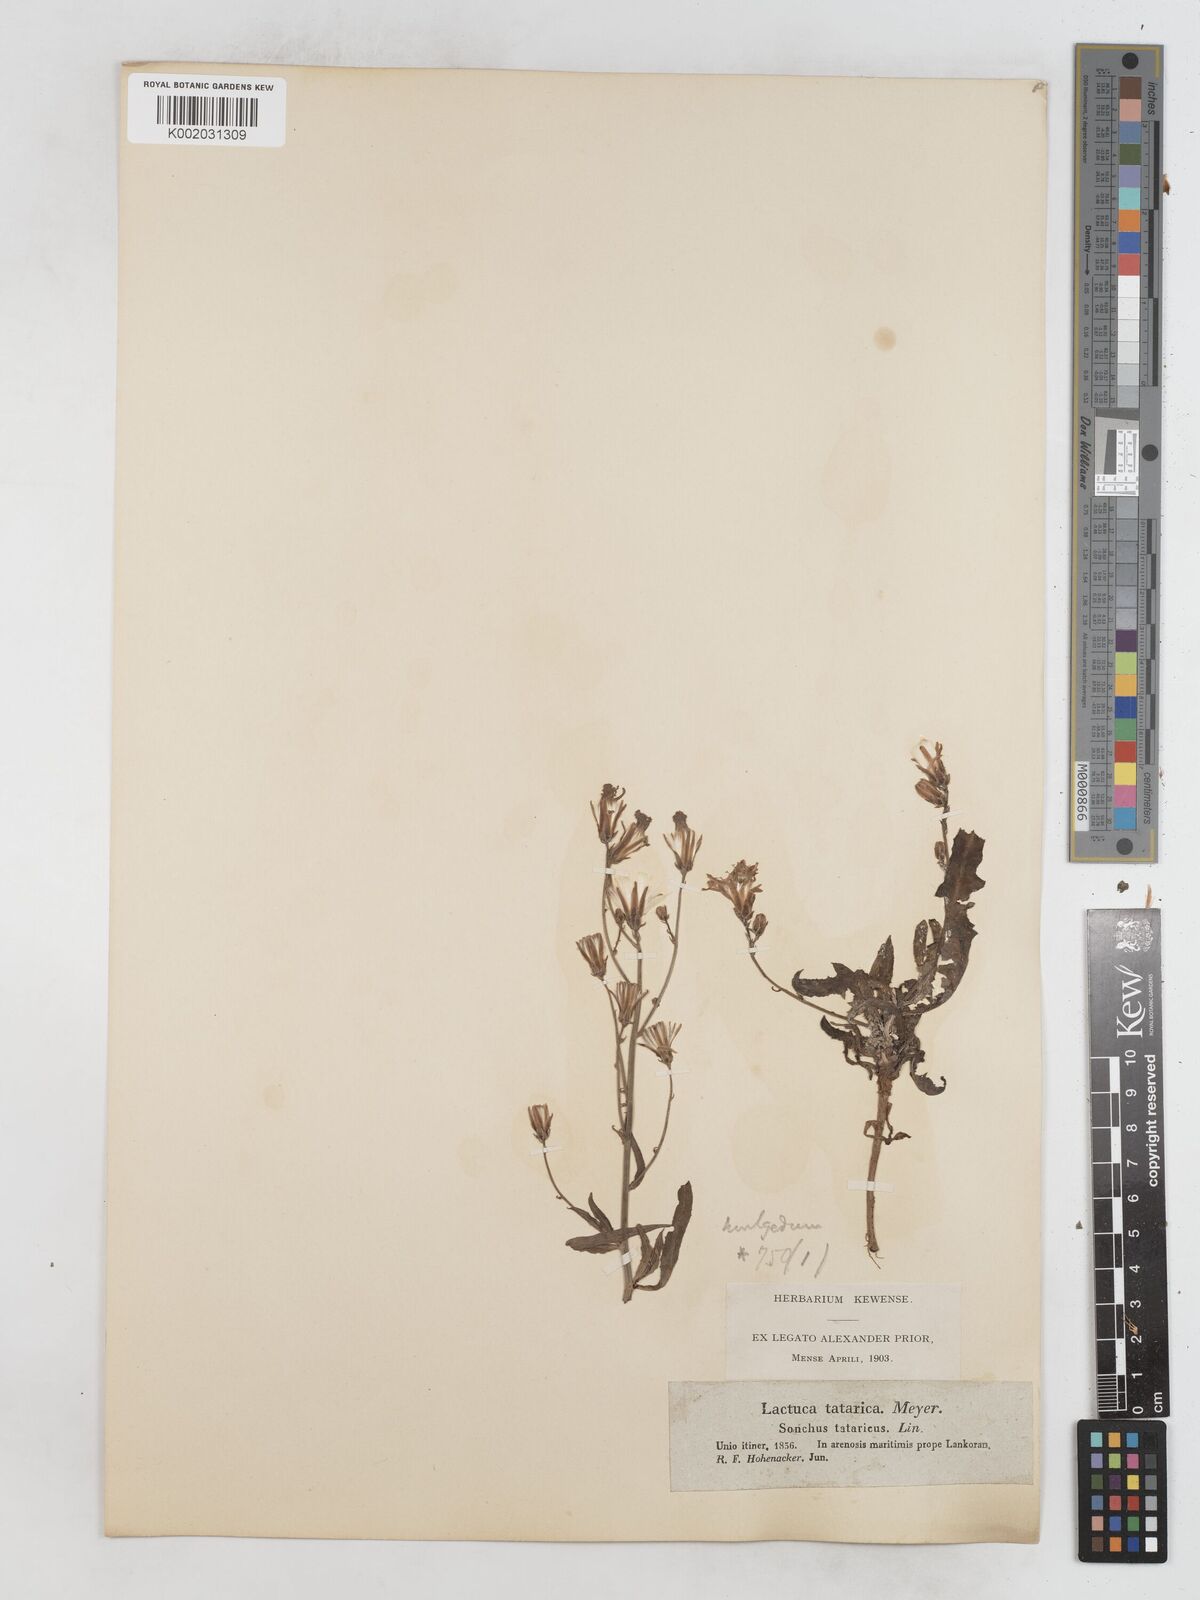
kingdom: Plantae
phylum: Tracheophyta
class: Magnoliopsida
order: Asterales
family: Asteraceae
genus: Lactuca
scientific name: Lactuca tatarica
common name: Blue lettuce
